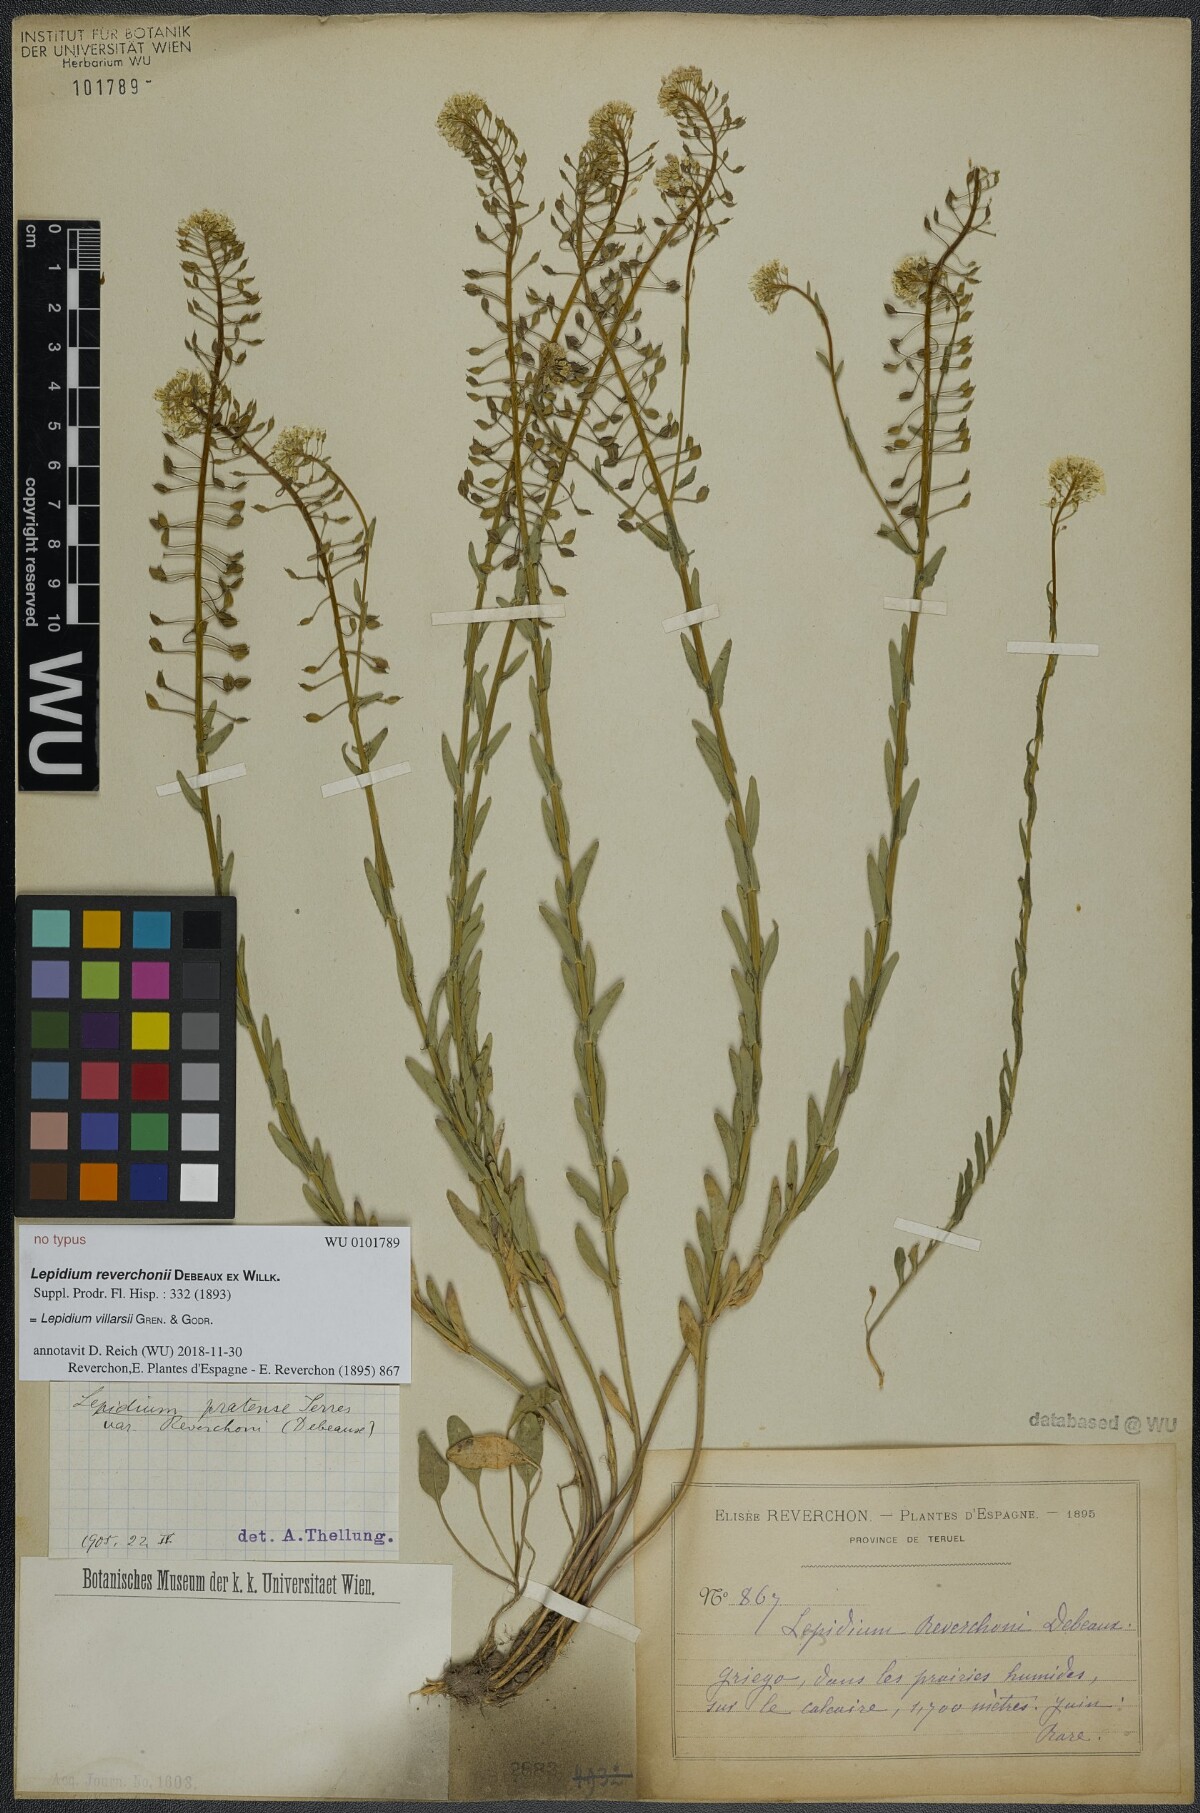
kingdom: Plantae
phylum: Tracheophyta
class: Magnoliopsida
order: Brassicales
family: Brassicaceae
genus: Lepidium
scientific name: Lepidium villarsii
